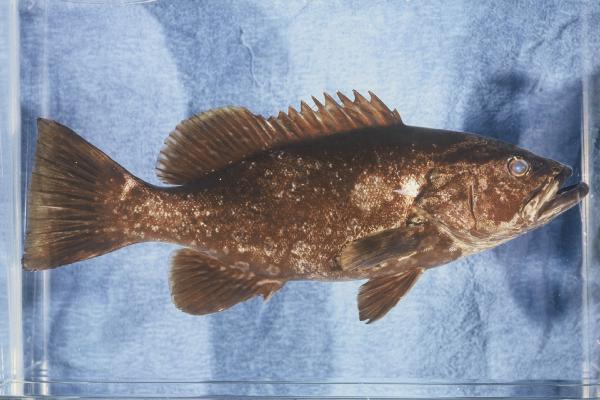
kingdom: Animalia
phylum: Chordata
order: Perciformes
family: Serranidae
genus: Mycteroperca
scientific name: Mycteroperca fusca
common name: Island grouper
